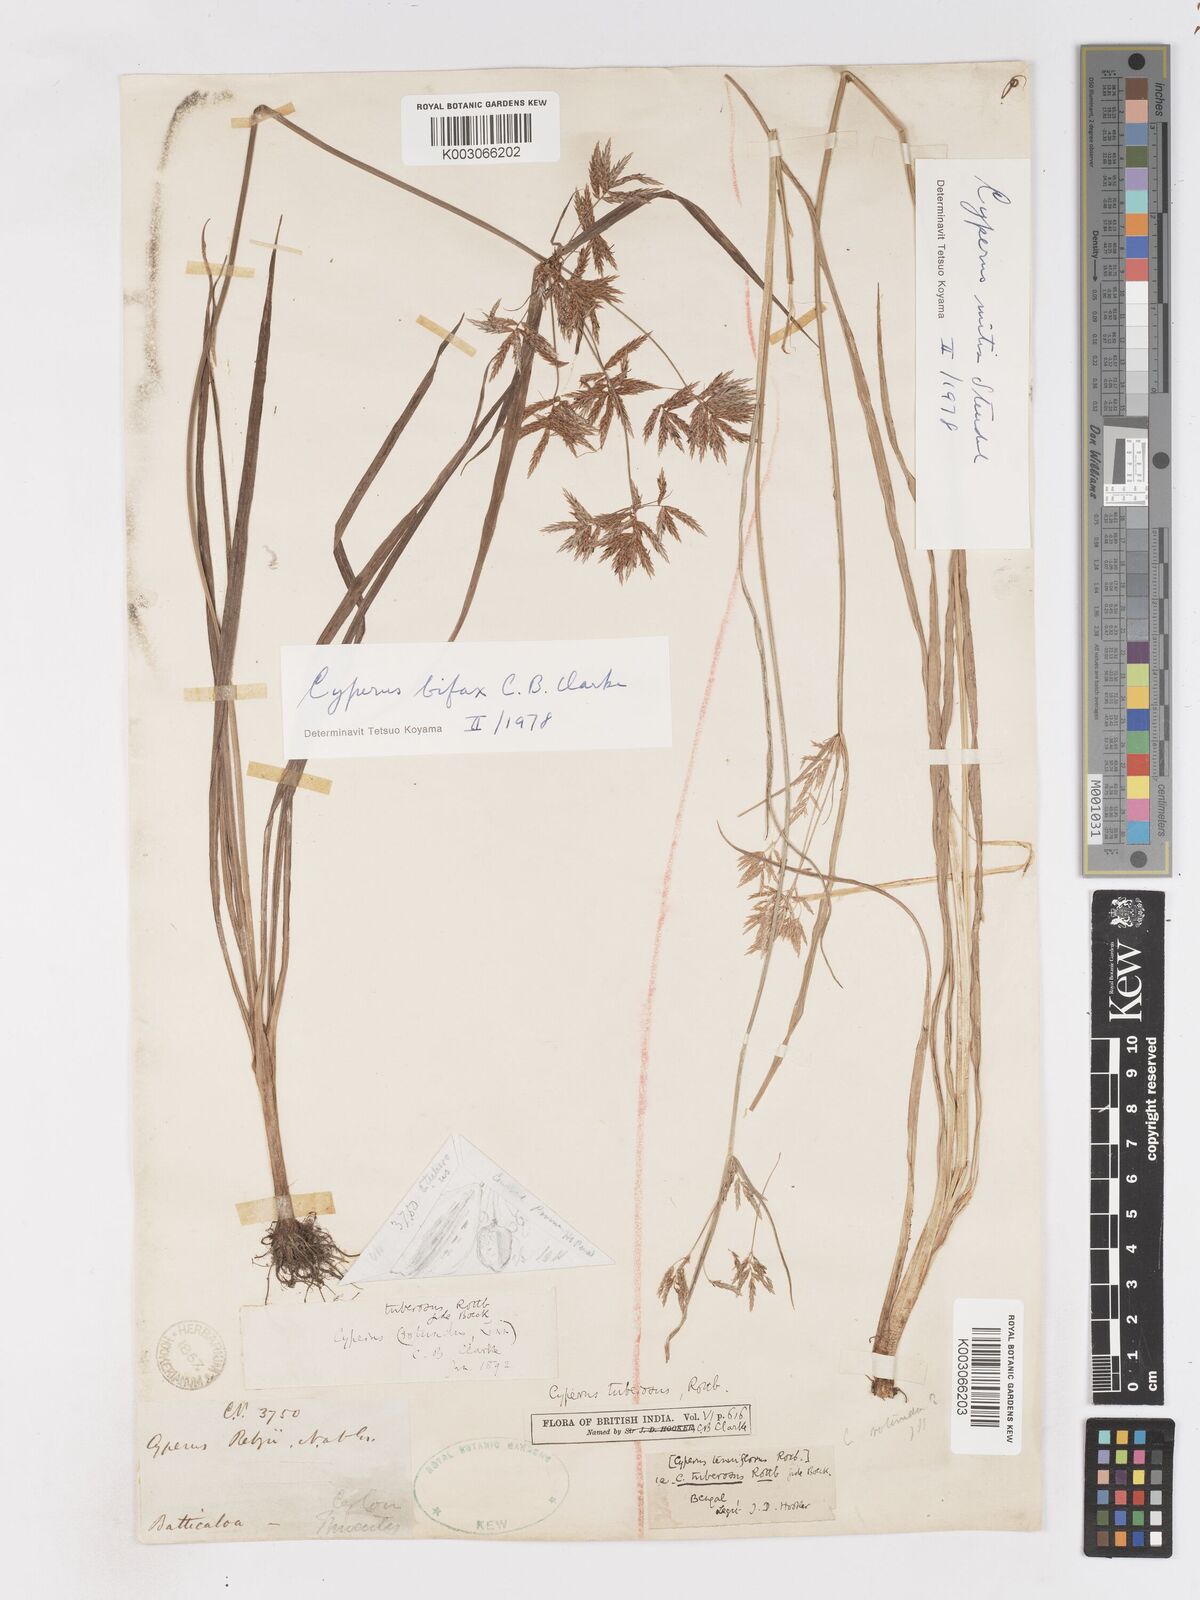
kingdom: Plantae
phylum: Tracheophyta
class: Liliopsida
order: Poales
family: Cyperaceae
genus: Cyperus
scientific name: Cyperus bifax
